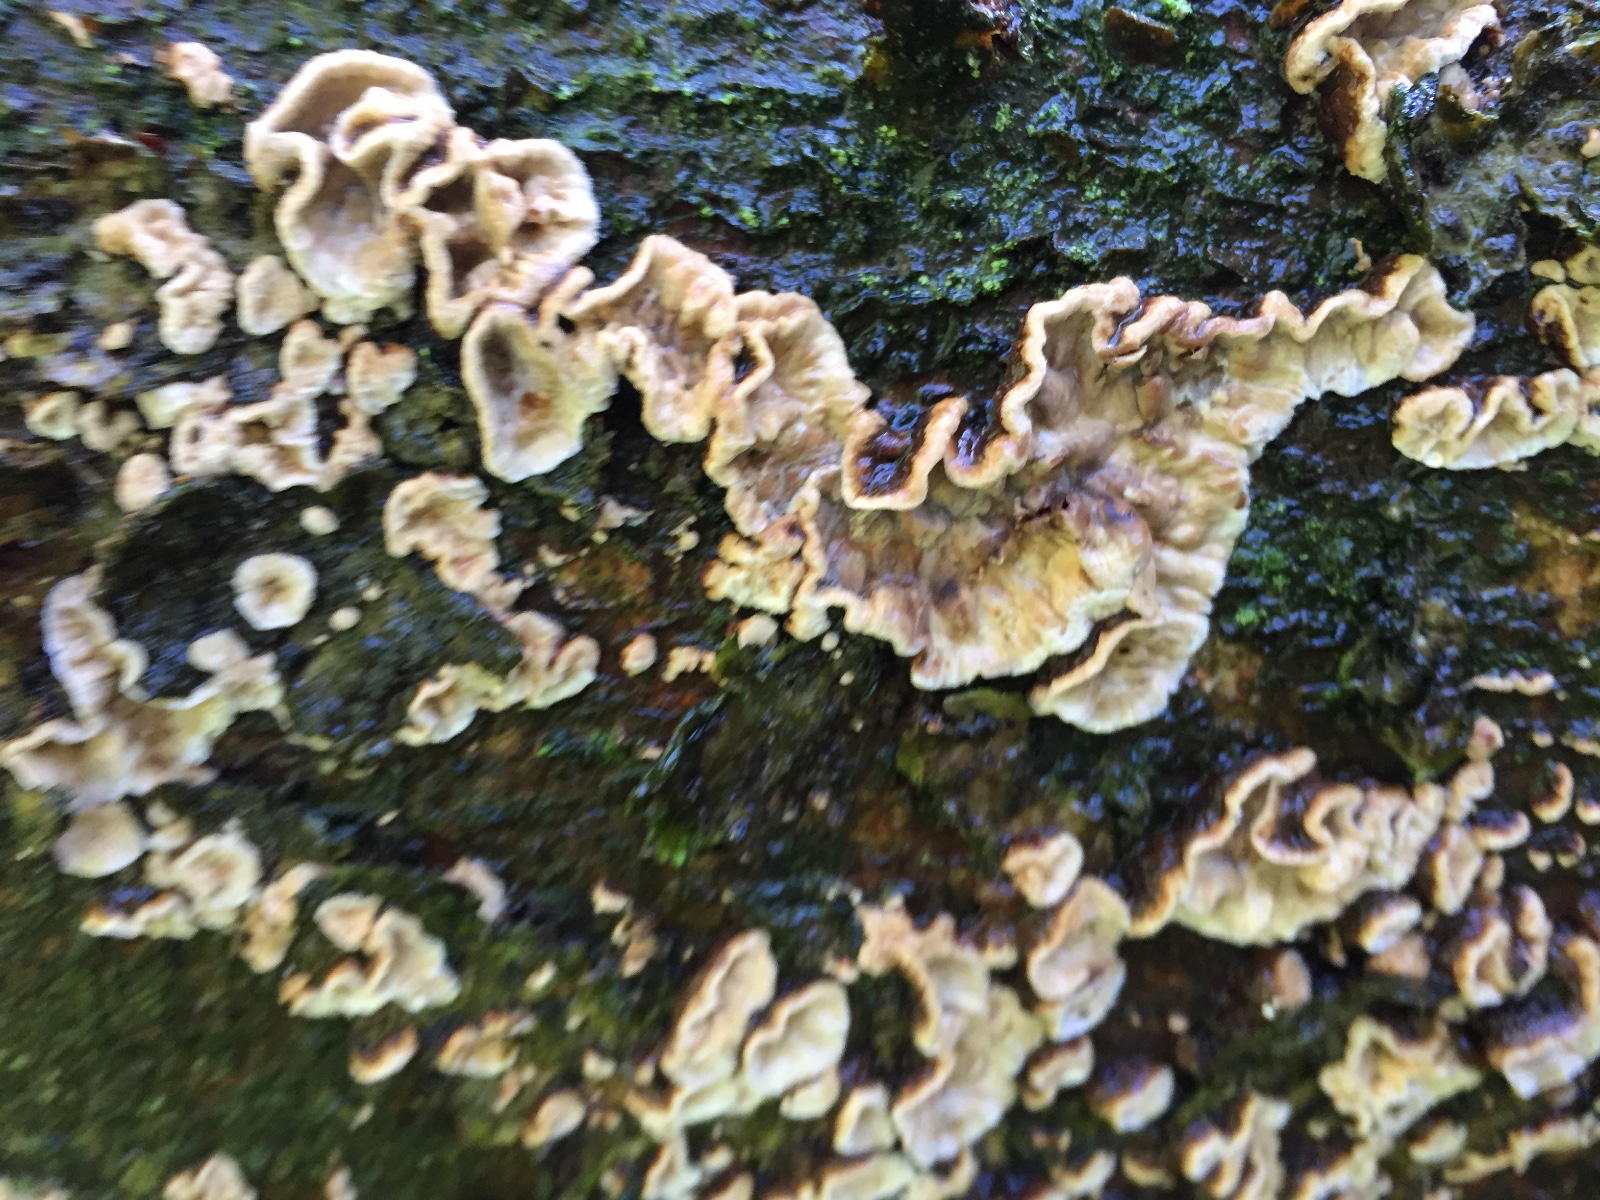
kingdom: Fungi
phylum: Basidiomycota
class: Agaricomycetes
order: Russulales
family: Stereaceae
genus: Stereum
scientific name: Stereum rugosum
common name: rynket lædersvamp
